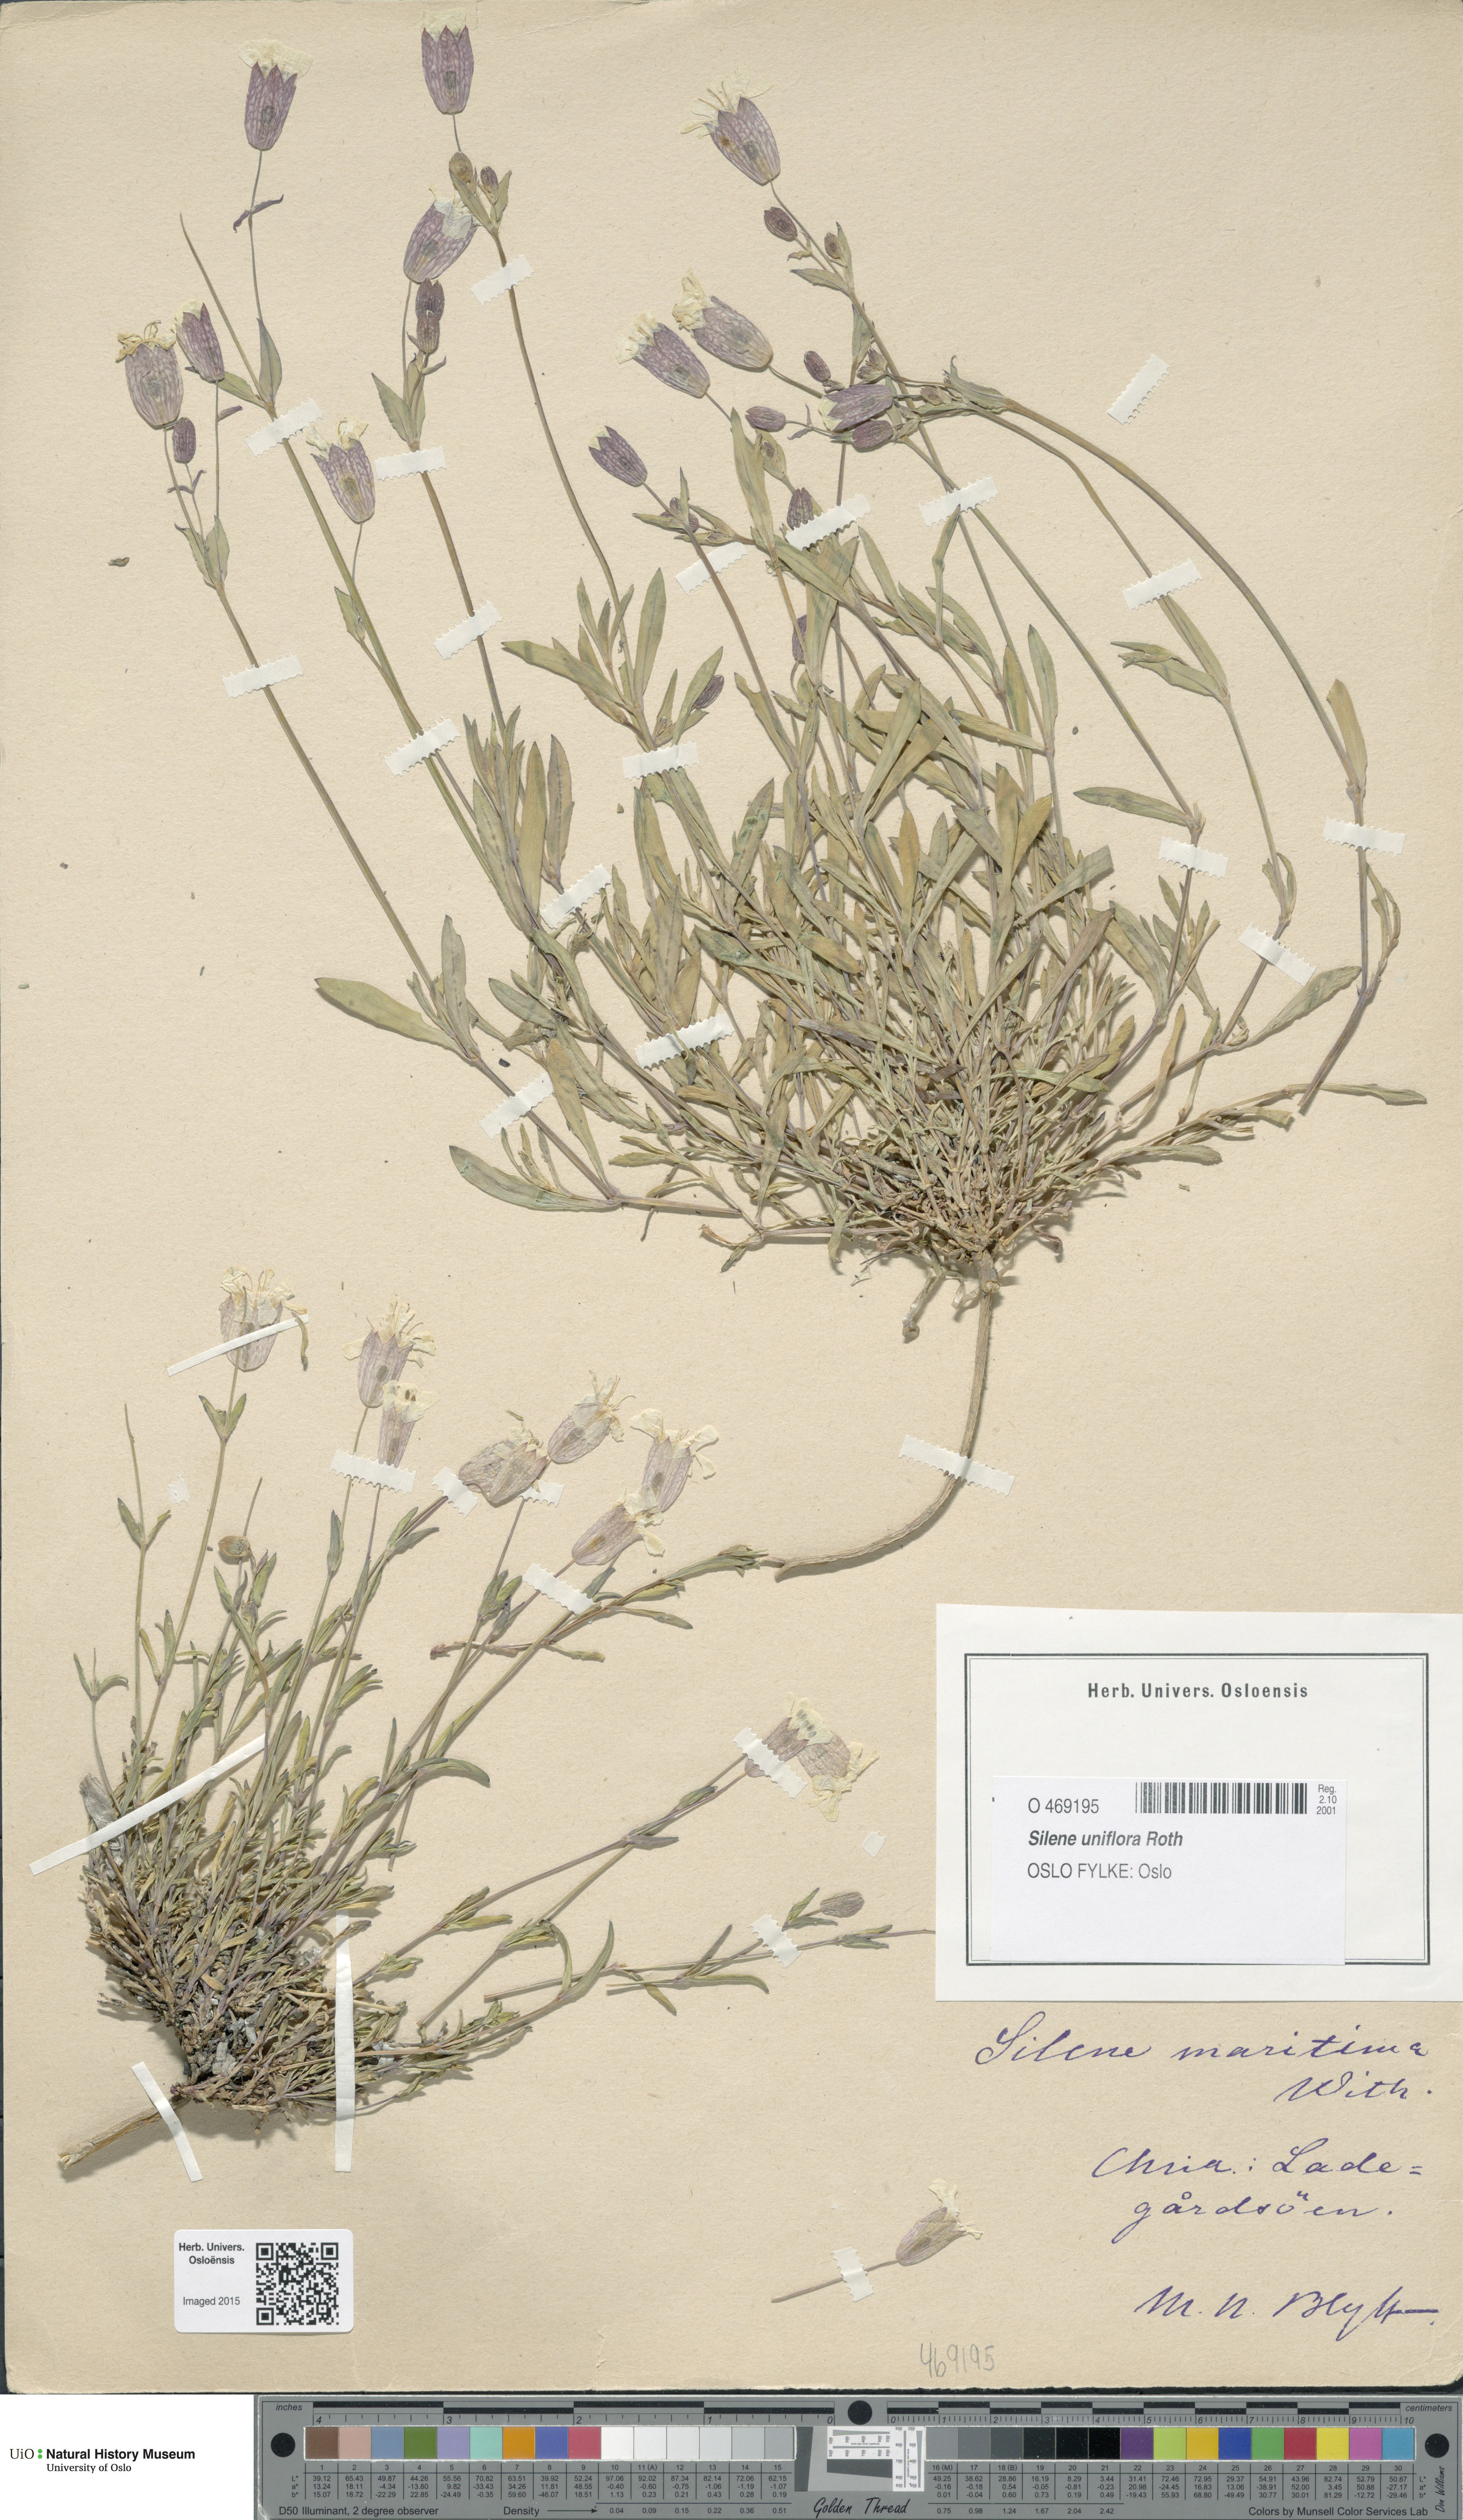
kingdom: Plantae
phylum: Tracheophyta
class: Magnoliopsida
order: Caryophyllales
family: Caryophyllaceae
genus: Silene
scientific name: Silene uniflora
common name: Sea campion
